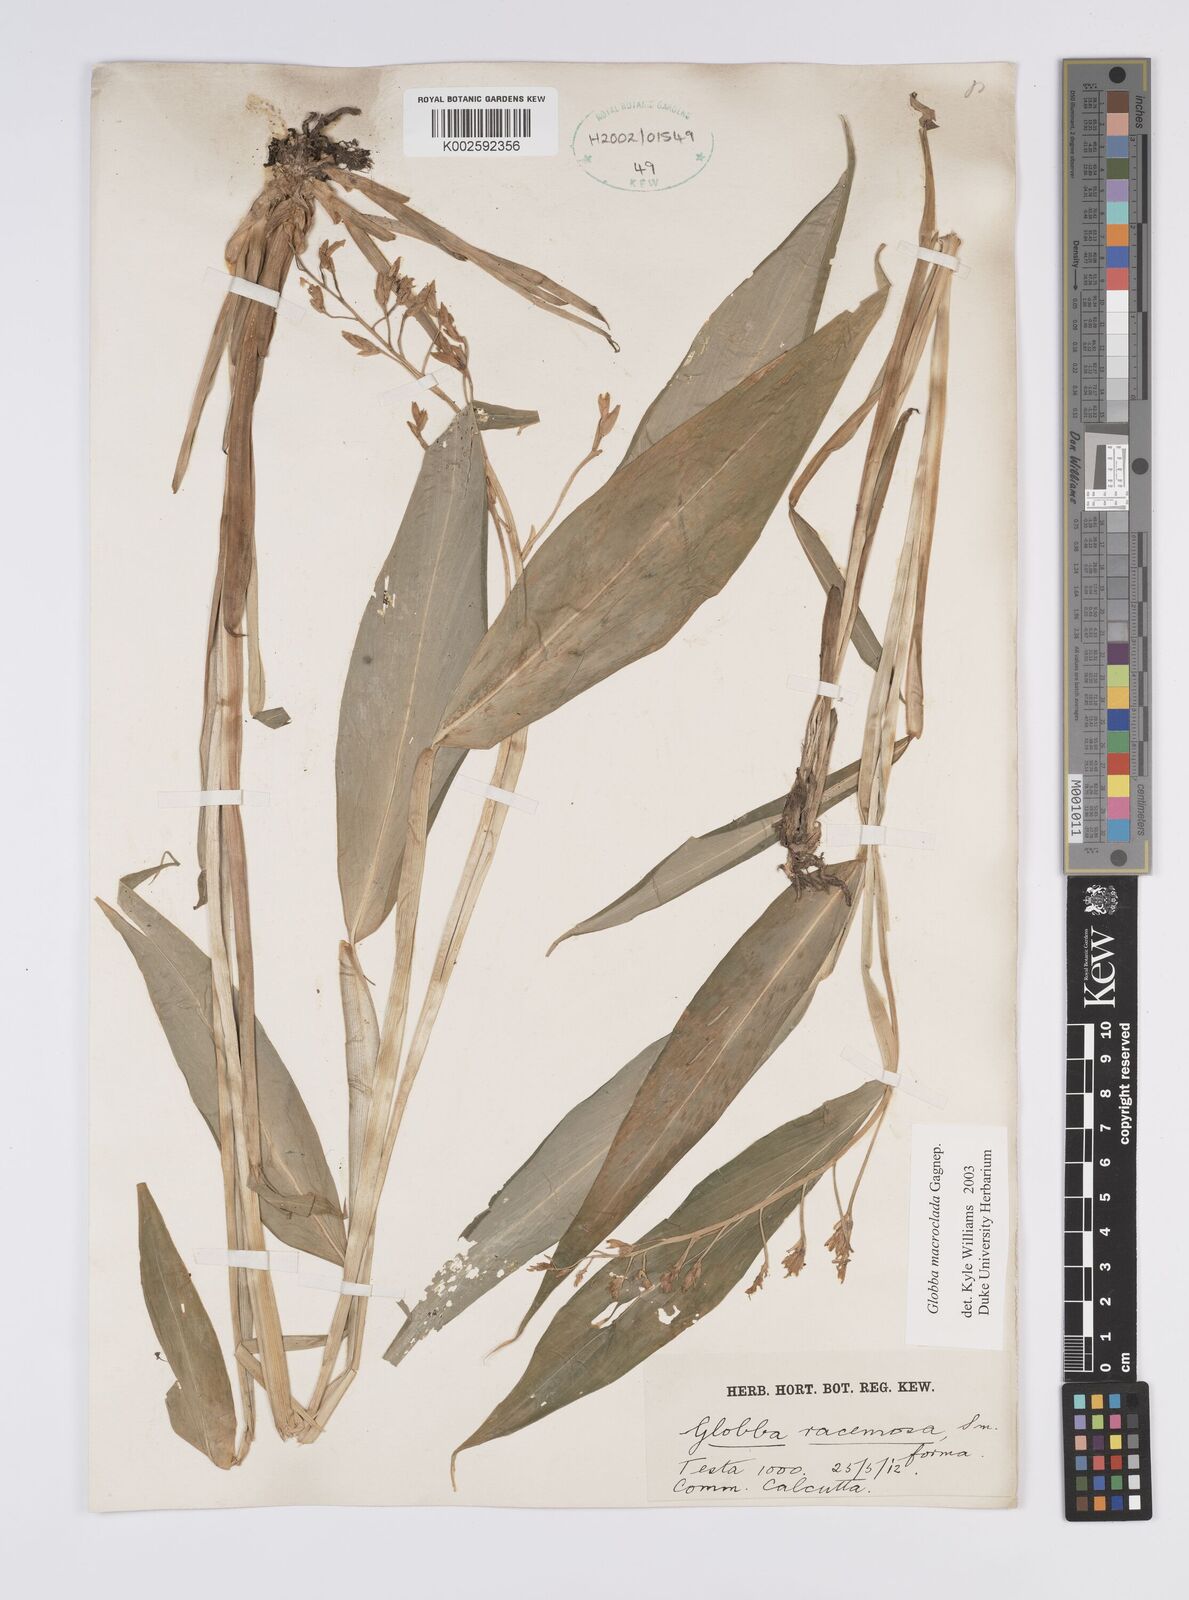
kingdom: Plantae
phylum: Tracheophyta
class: Liliopsida
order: Zingiberales
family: Zingiberaceae
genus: Globba
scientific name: Globba macroclada
